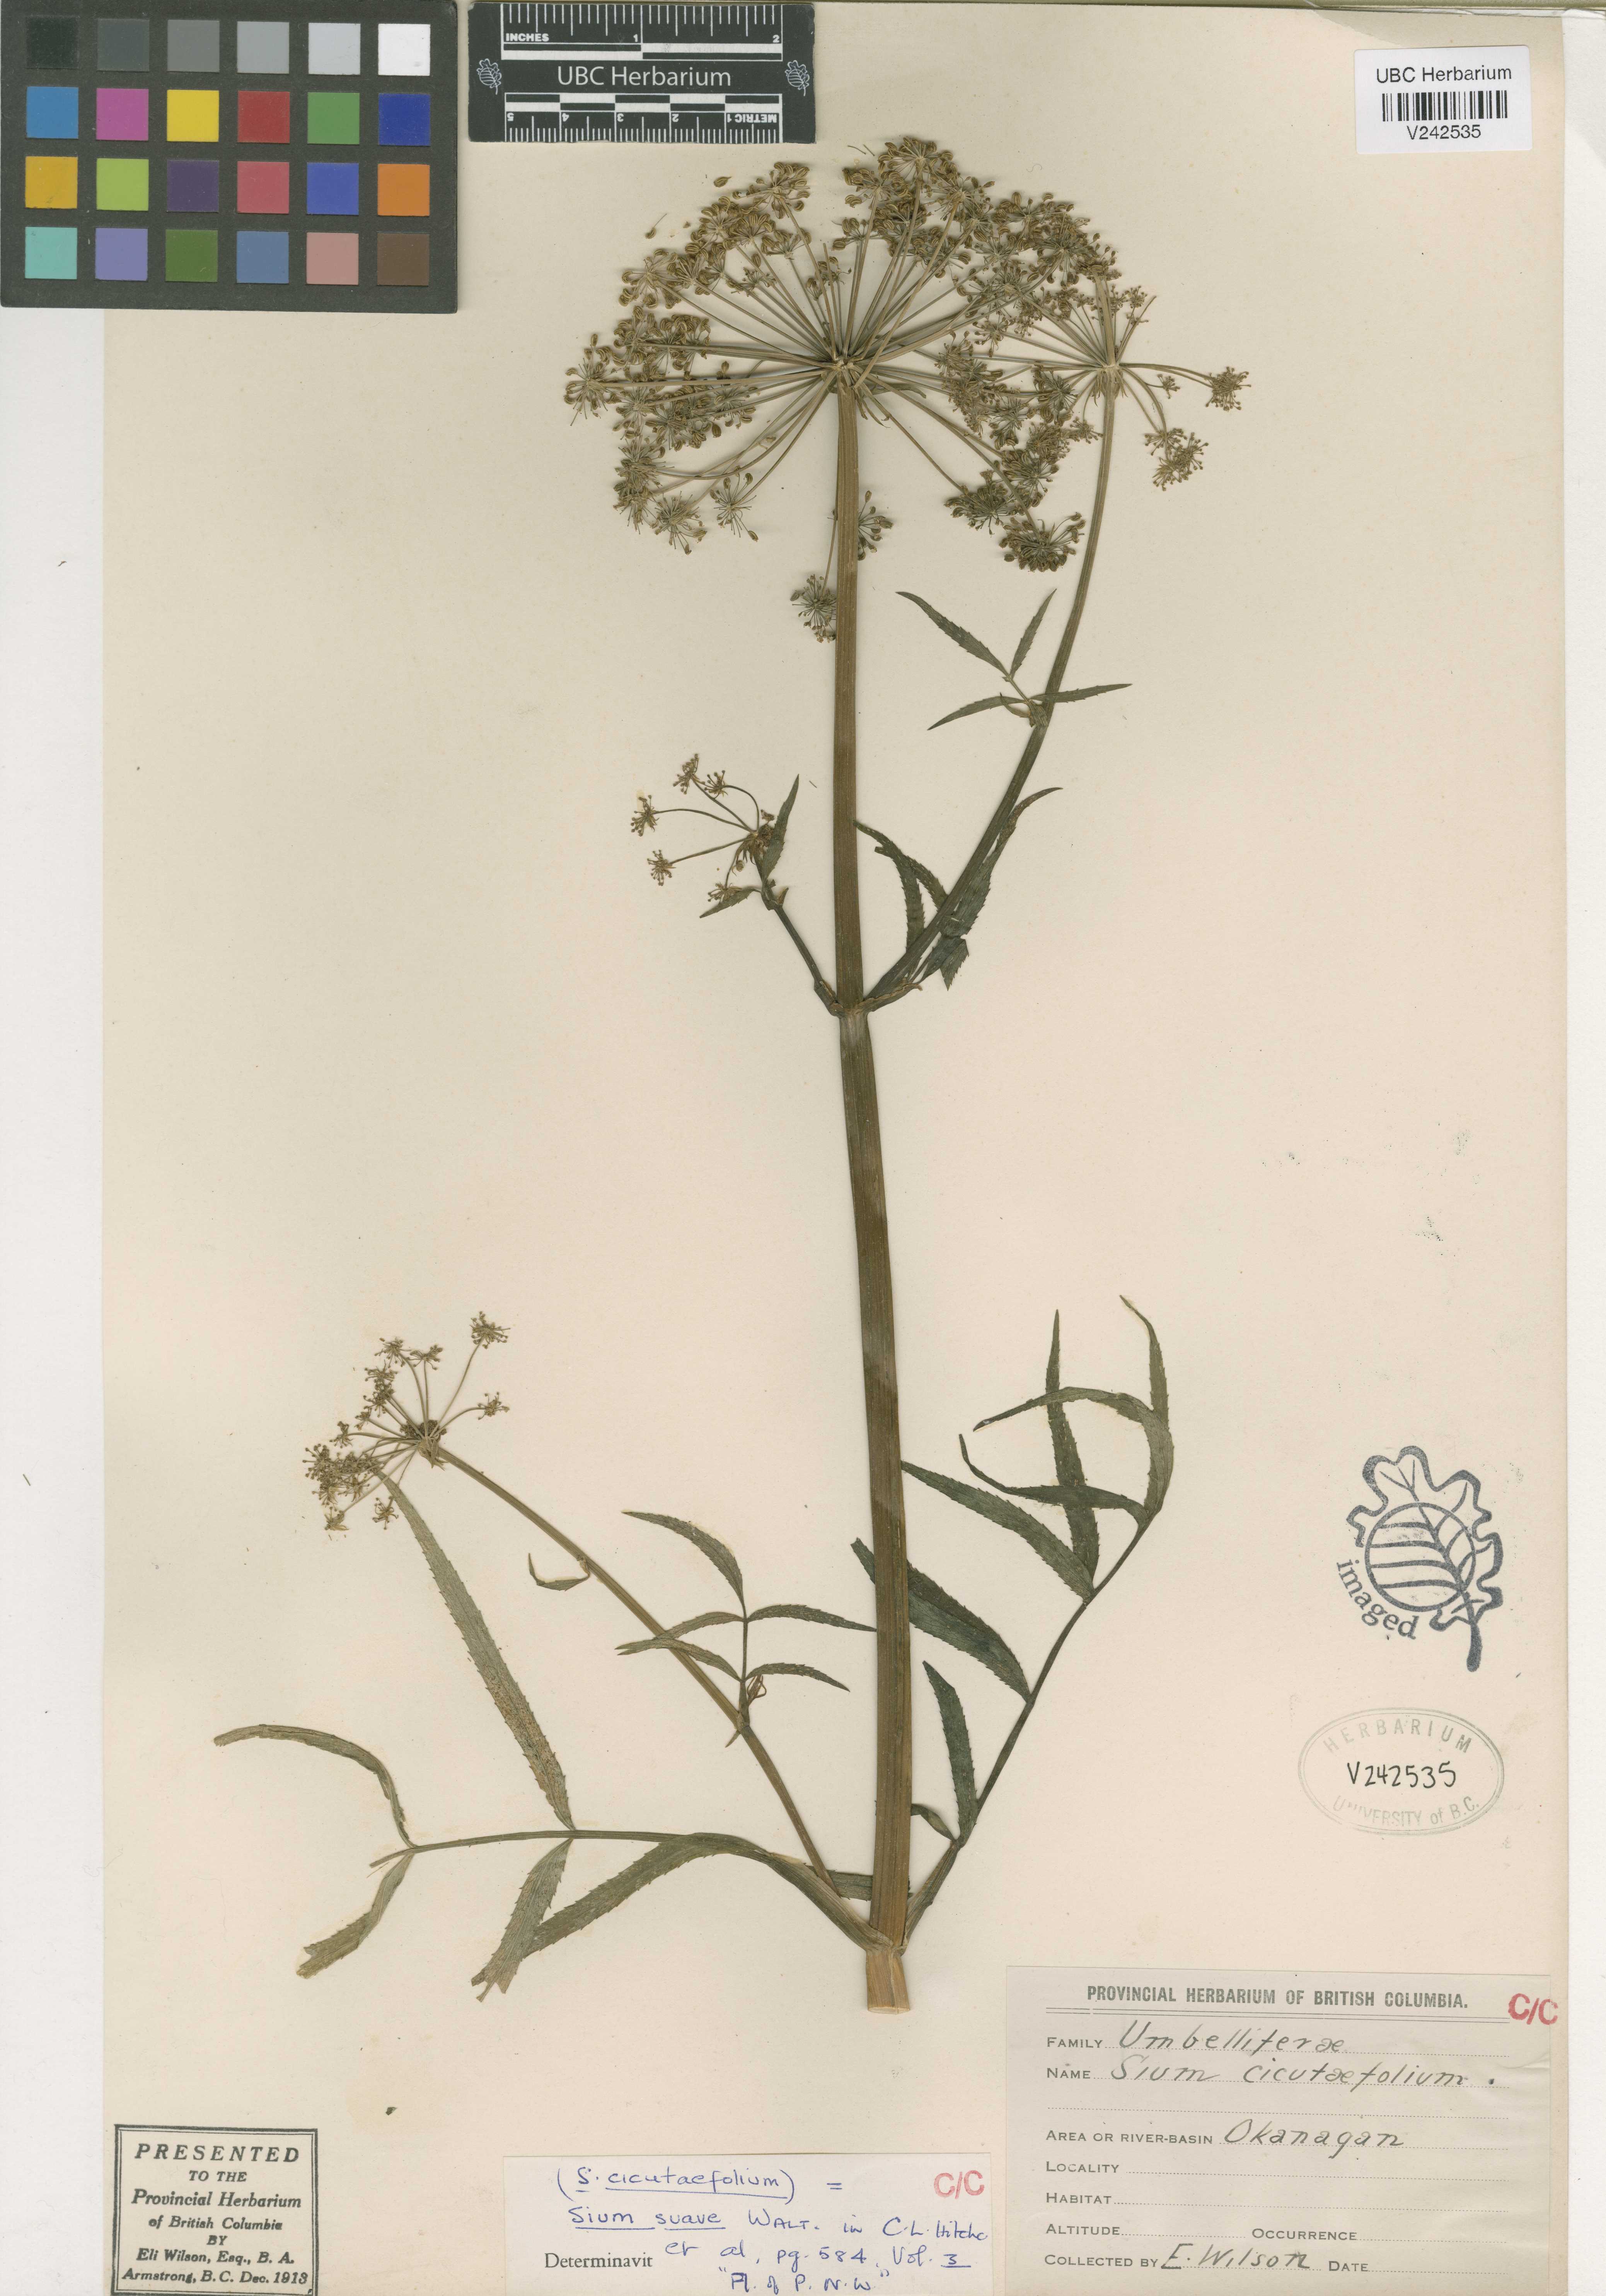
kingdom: Plantae
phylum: Tracheophyta
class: Magnoliopsida
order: Apiales
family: Apiaceae
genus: Sium
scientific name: Sium suave
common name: Hemlock water-parsnip
